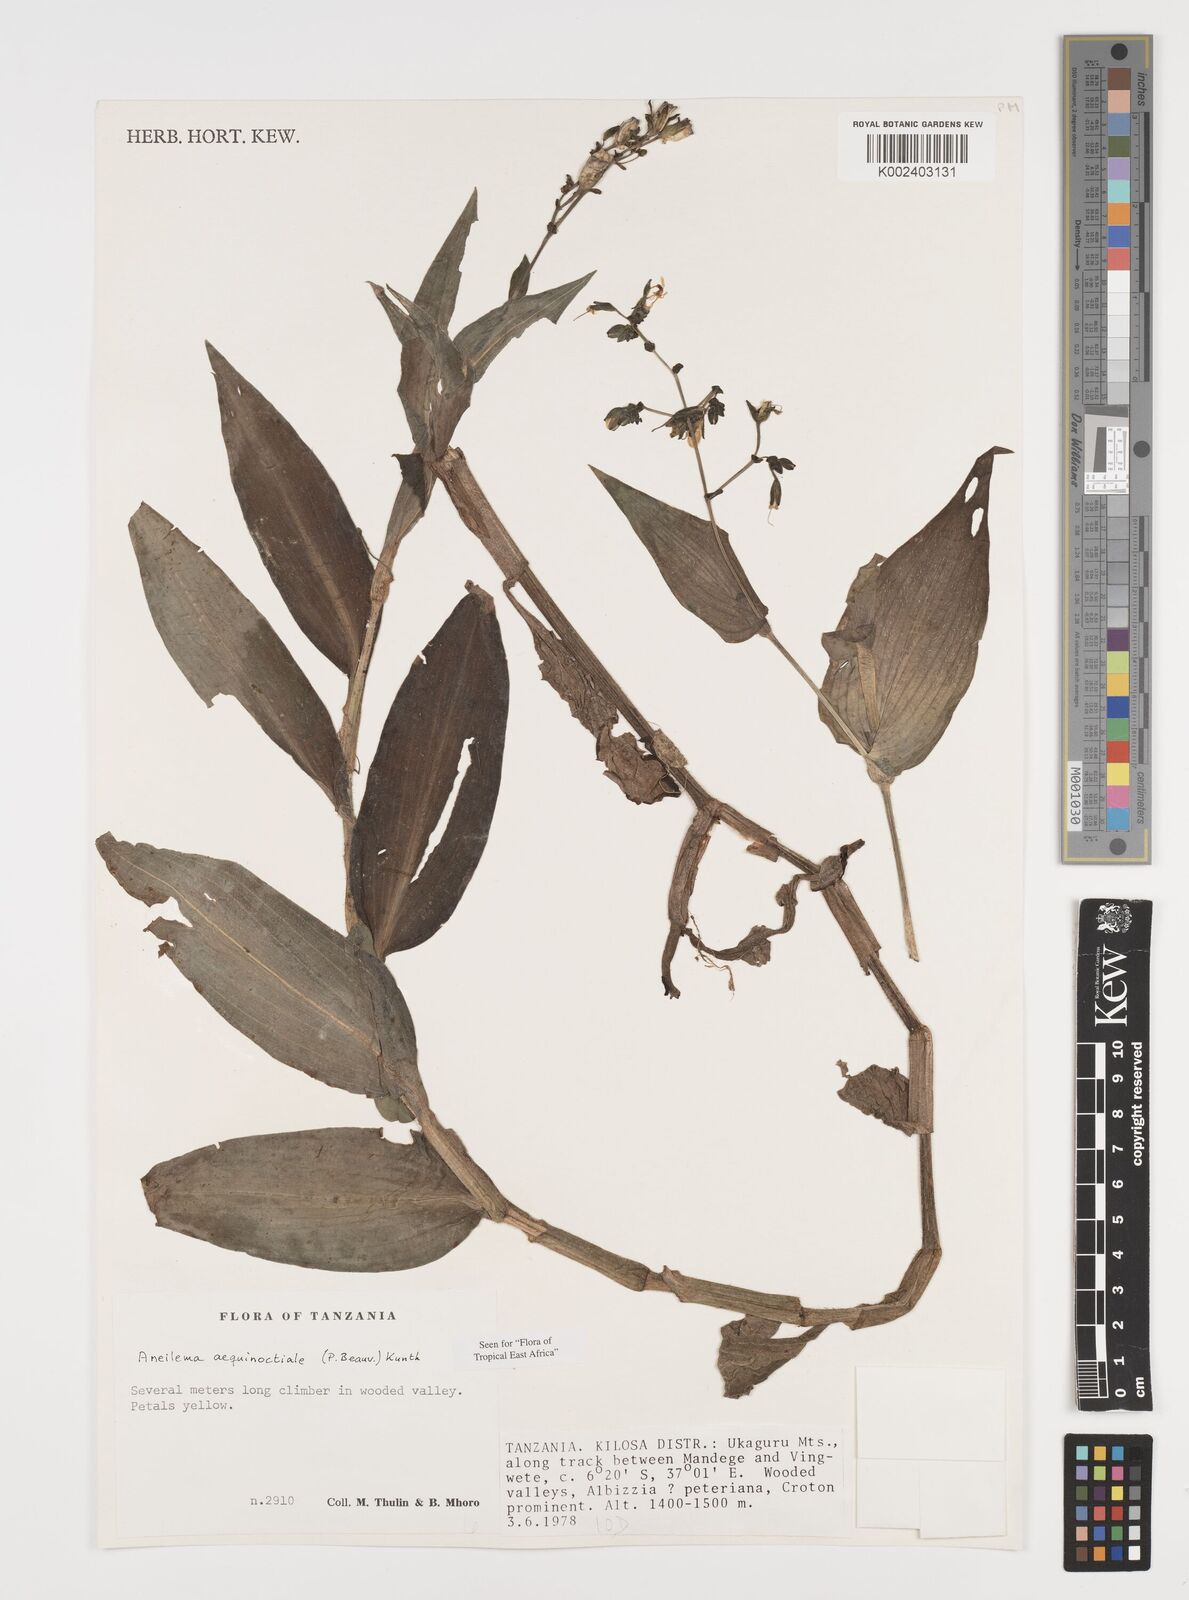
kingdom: Plantae
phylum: Tracheophyta
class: Liliopsida
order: Commelinales
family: Commelinaceae
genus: Aneilema
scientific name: Aneilema aequinoctiale
